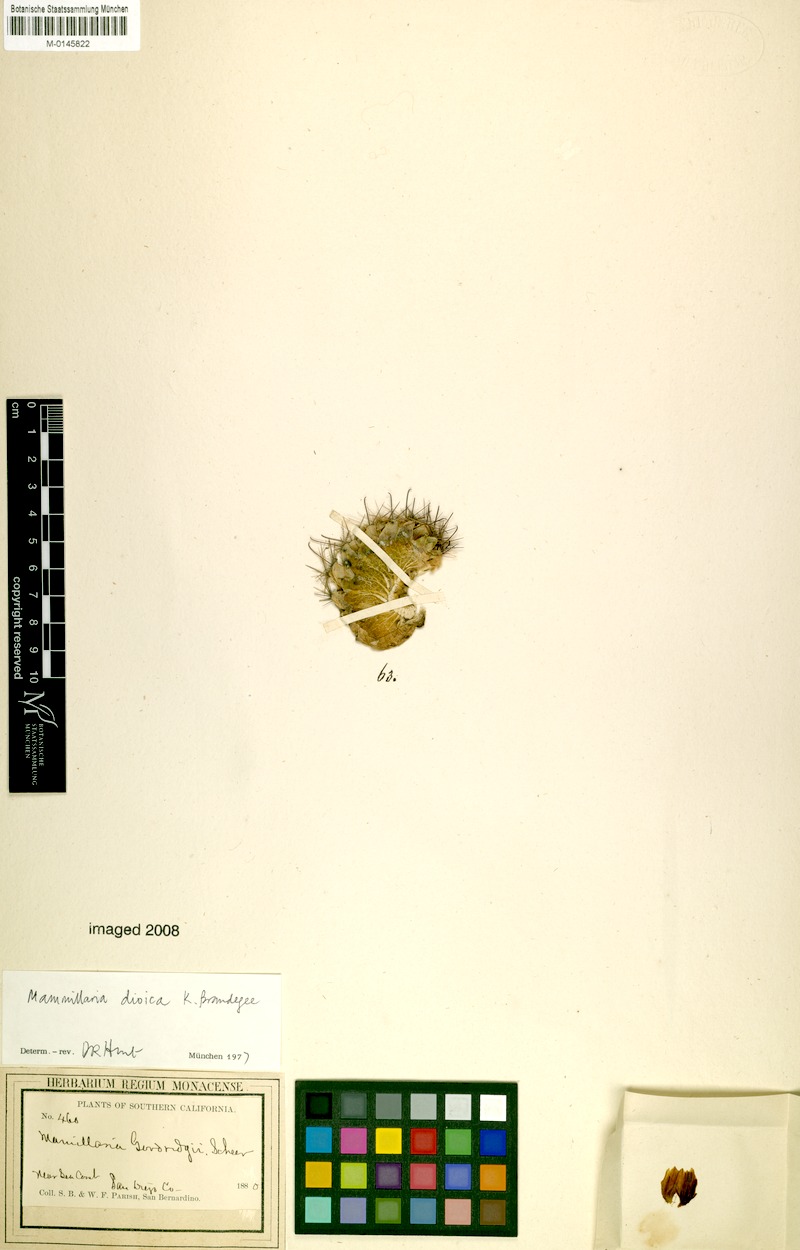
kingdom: Plantae
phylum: Tracheophyta
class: Magnoliopsida
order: Caryophyllales
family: Cactaceae
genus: Cochemiea
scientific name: Cochemiea dioica
